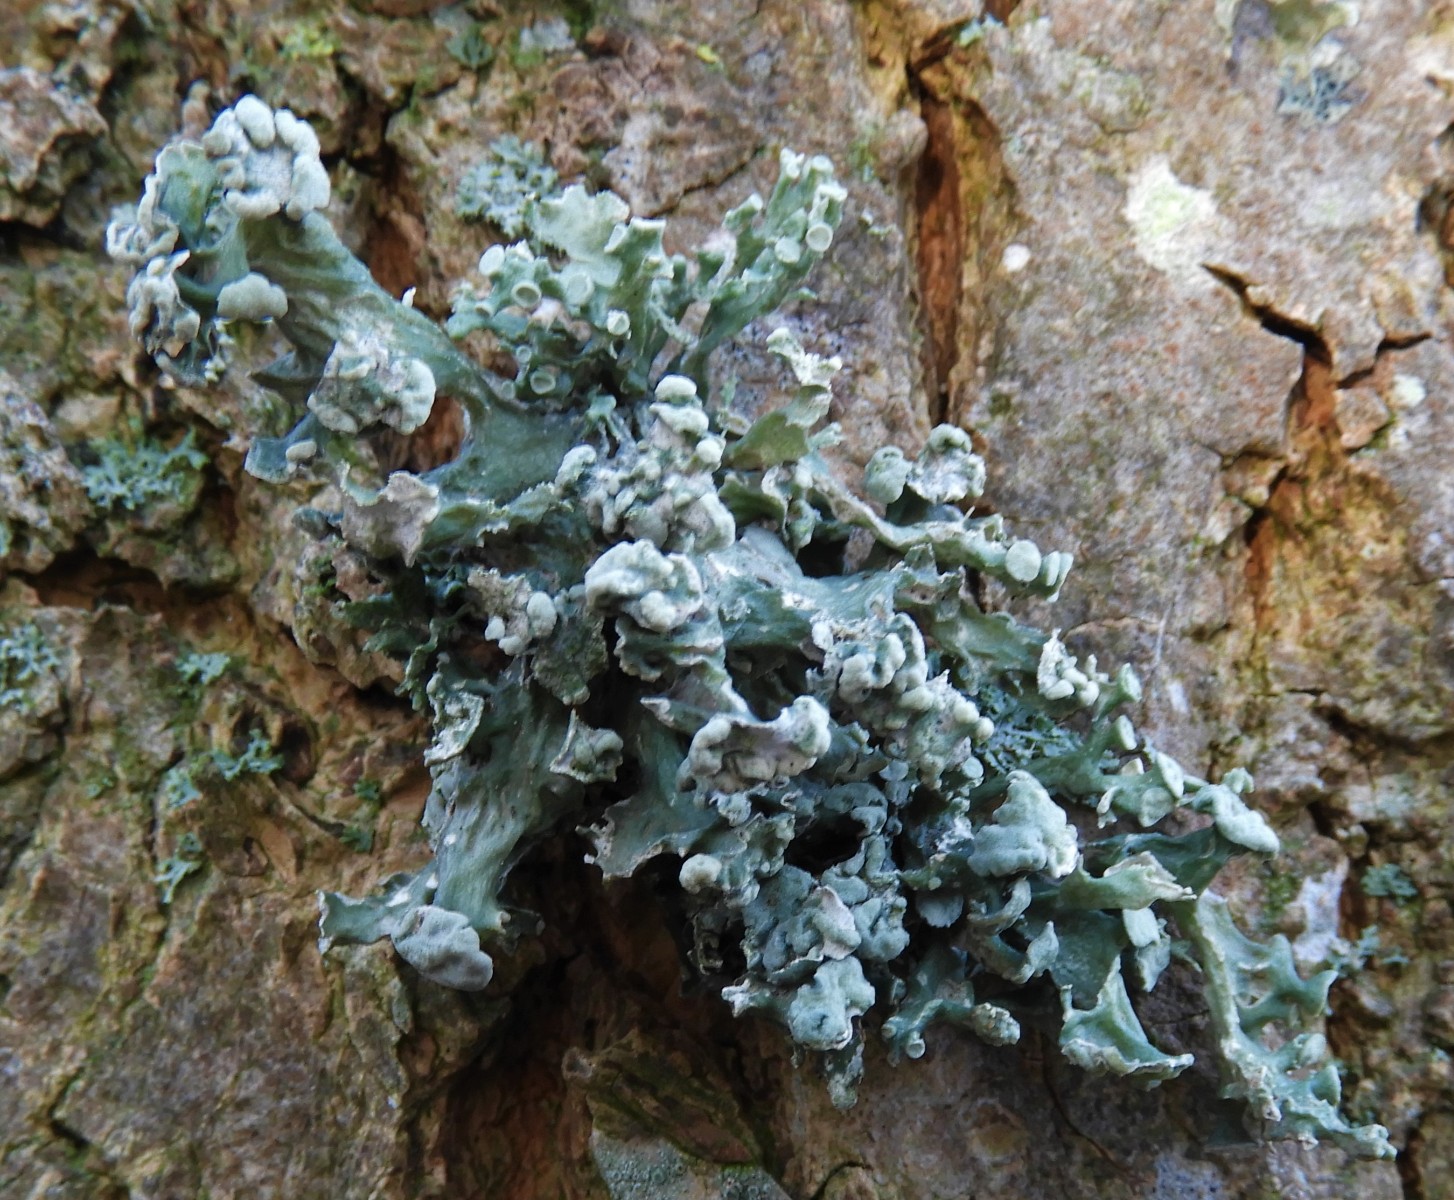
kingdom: Fungi
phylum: Ascomycota
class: Lecanoromycetes
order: Lecanorales
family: Ramalinaceae
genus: Ramalina
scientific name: Ramalina fastigiata
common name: tue-grenlav
